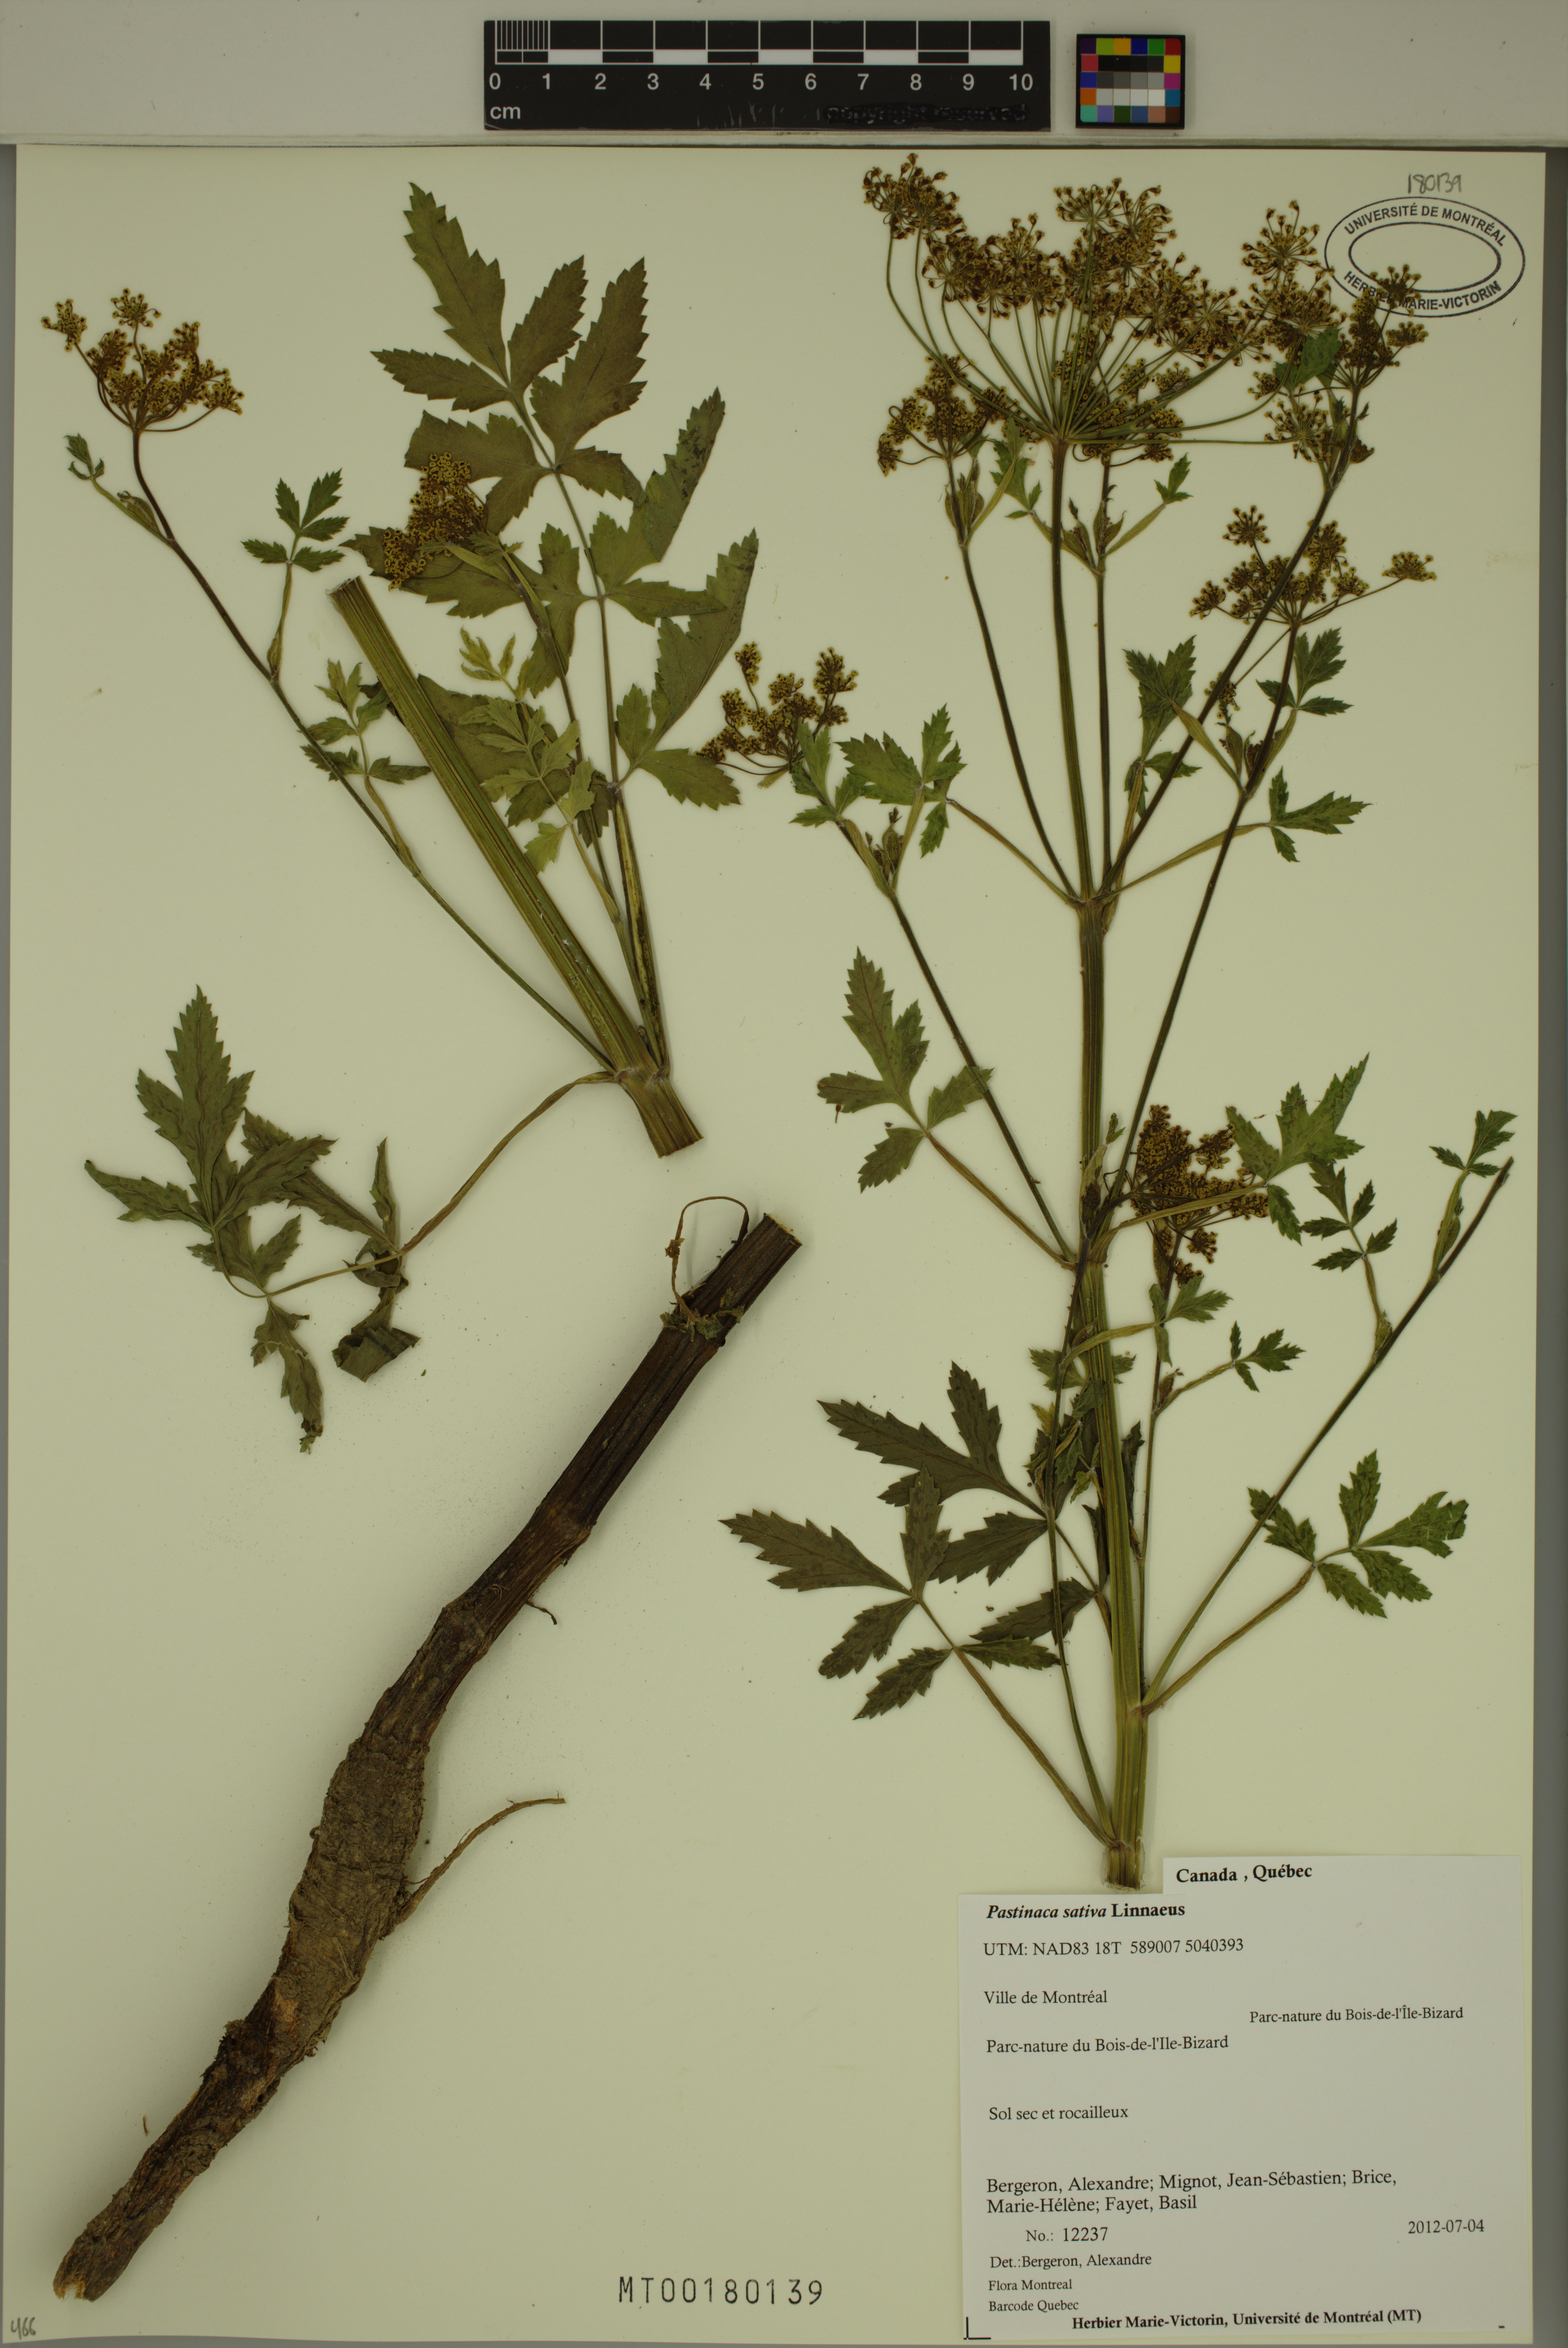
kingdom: Plantae
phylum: Tracheophyta
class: Magnoliopsida
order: Apiales
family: Apiaceae
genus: Pastinaca
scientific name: Pastinaca sativa
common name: Wild parsnip
